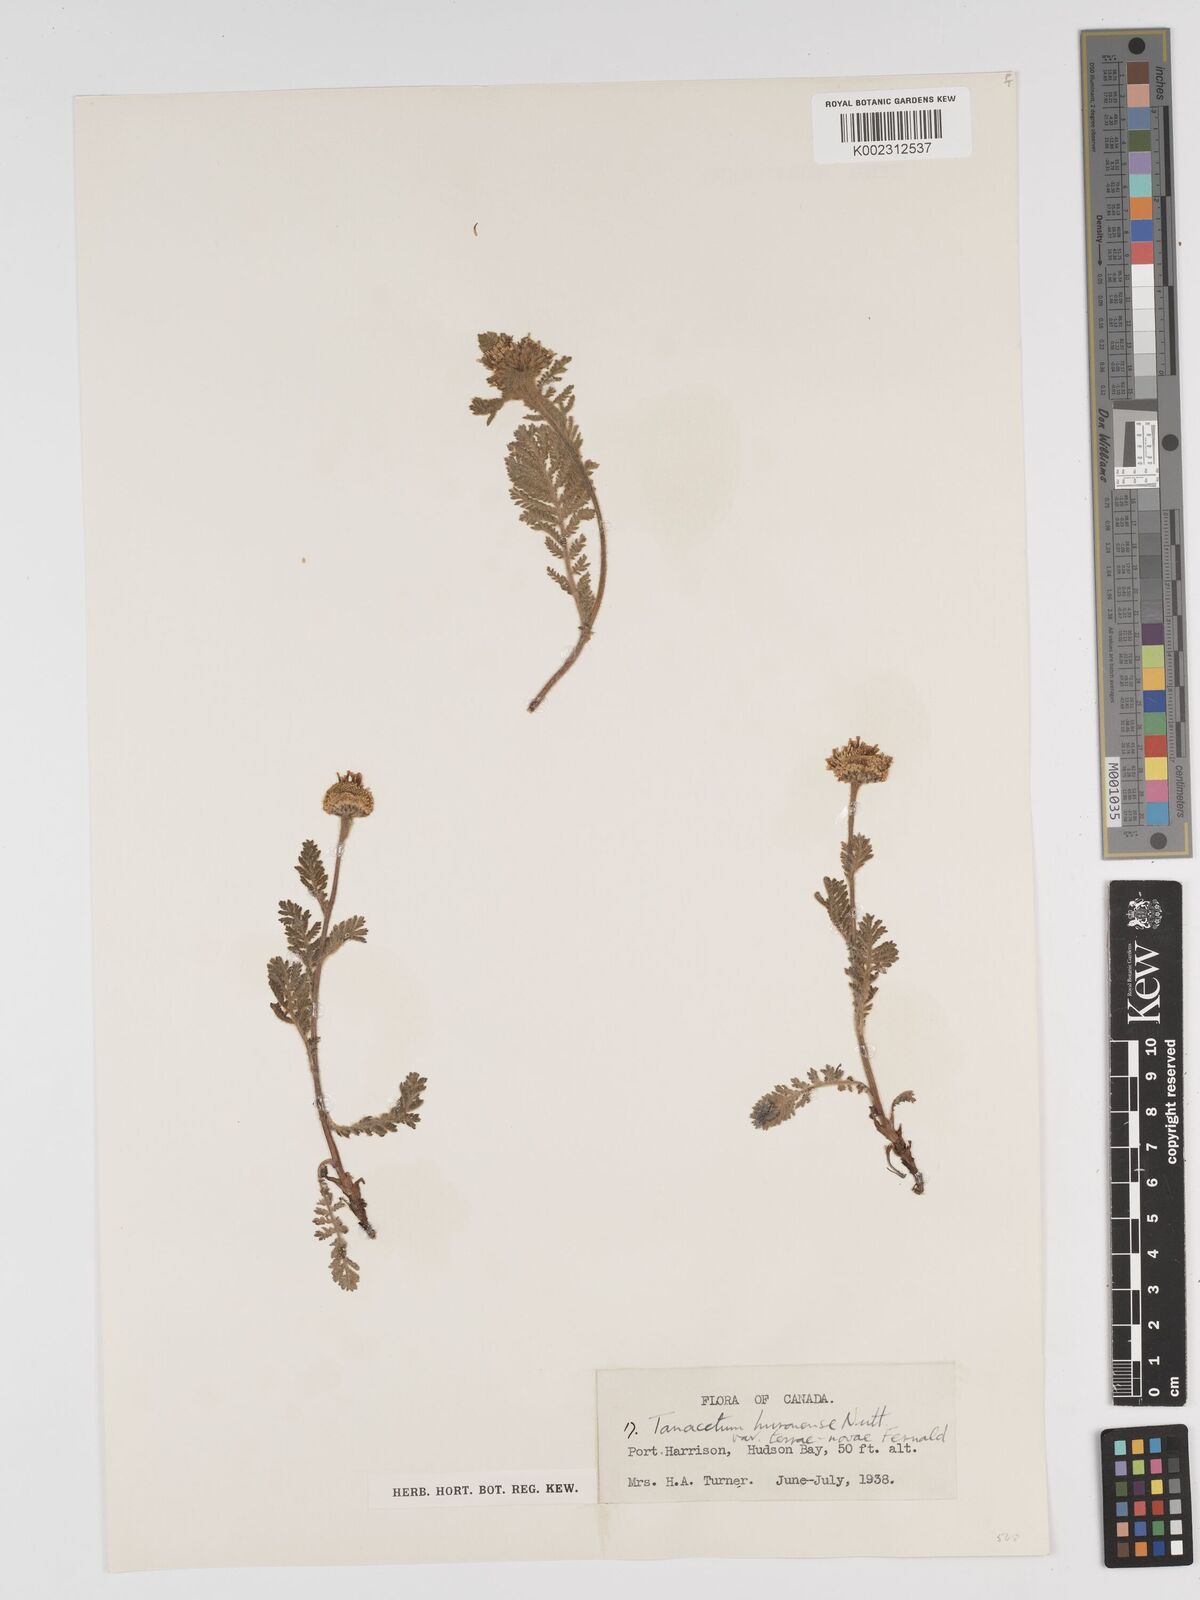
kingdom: Plantae
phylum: Tracheophyta
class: Magnoliopsida
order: Asterales
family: Asteraceae
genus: Tanacetum
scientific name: Tanacetum bipinnatum
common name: Dwarf tansy
